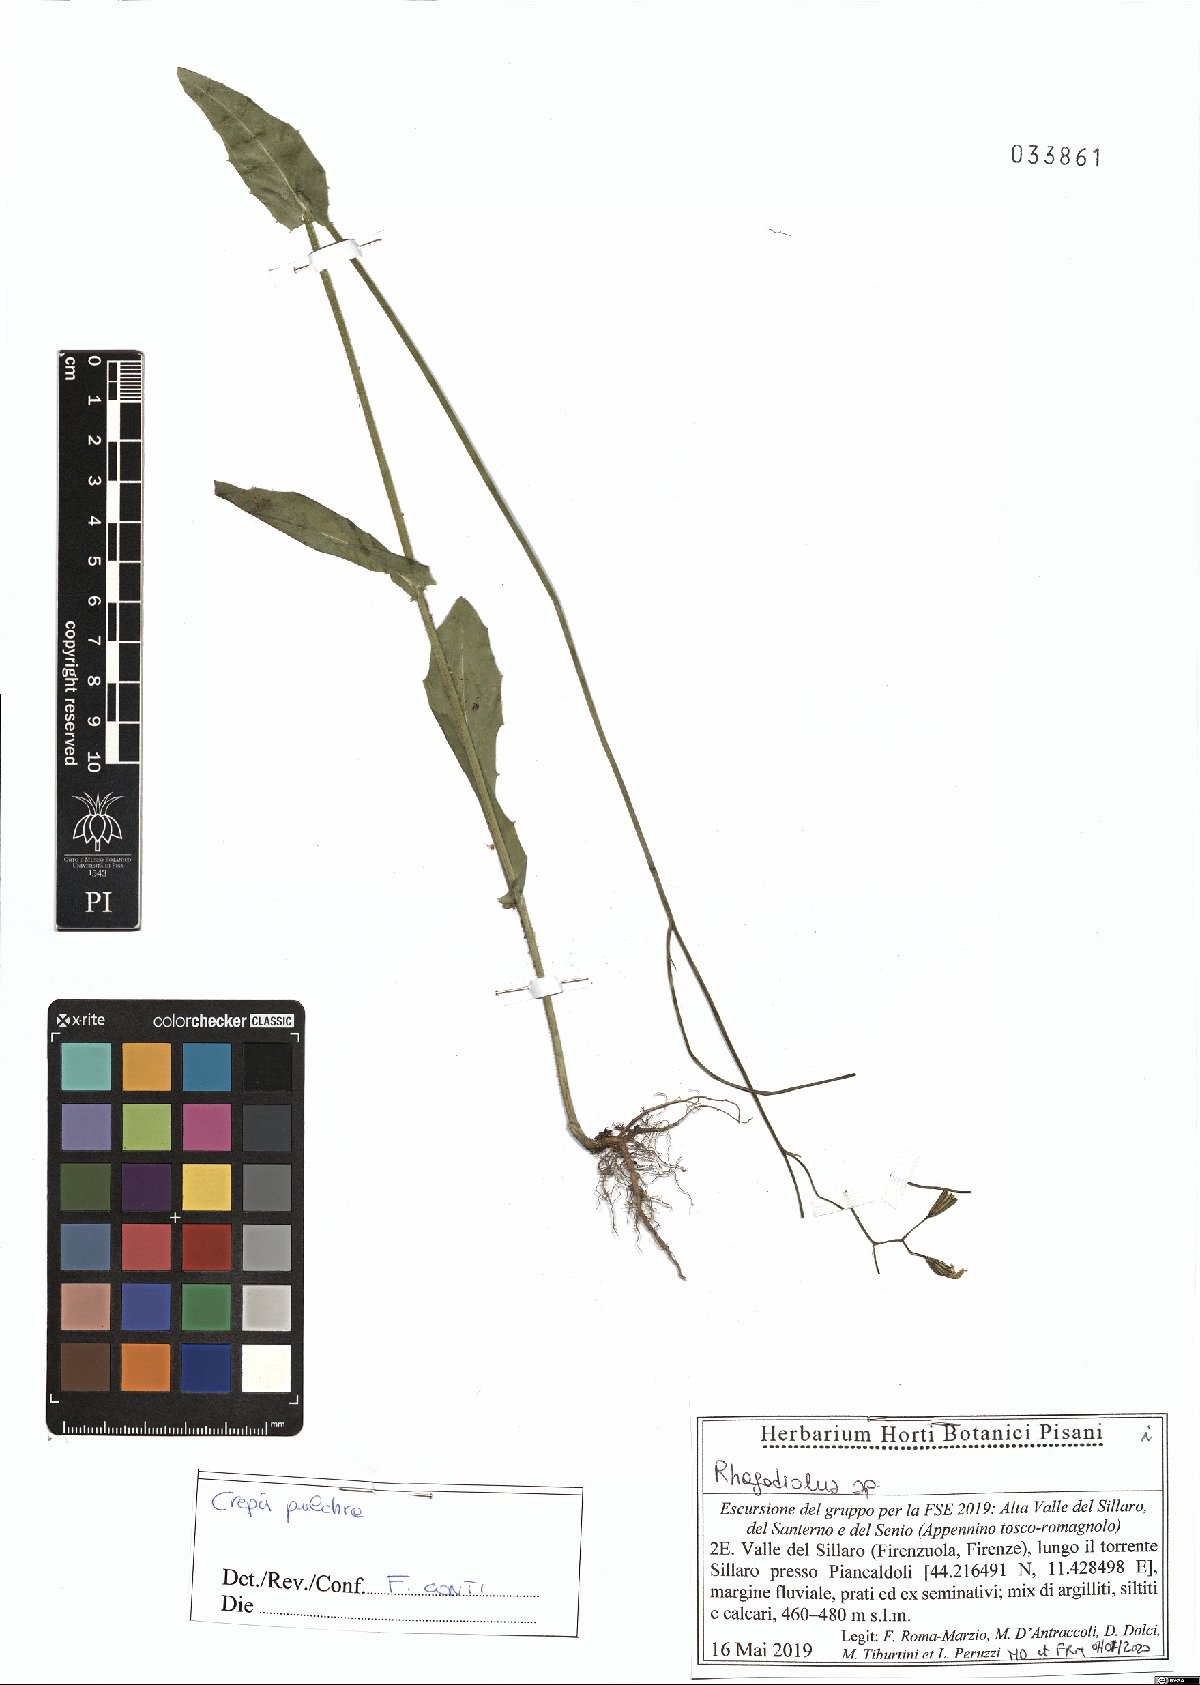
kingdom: Plantae
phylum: Tracheophyta
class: Magnoliopsida
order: Asterales
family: Asteraceae
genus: Crepis
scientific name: Crepis pulchra
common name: Hawk's-beard
